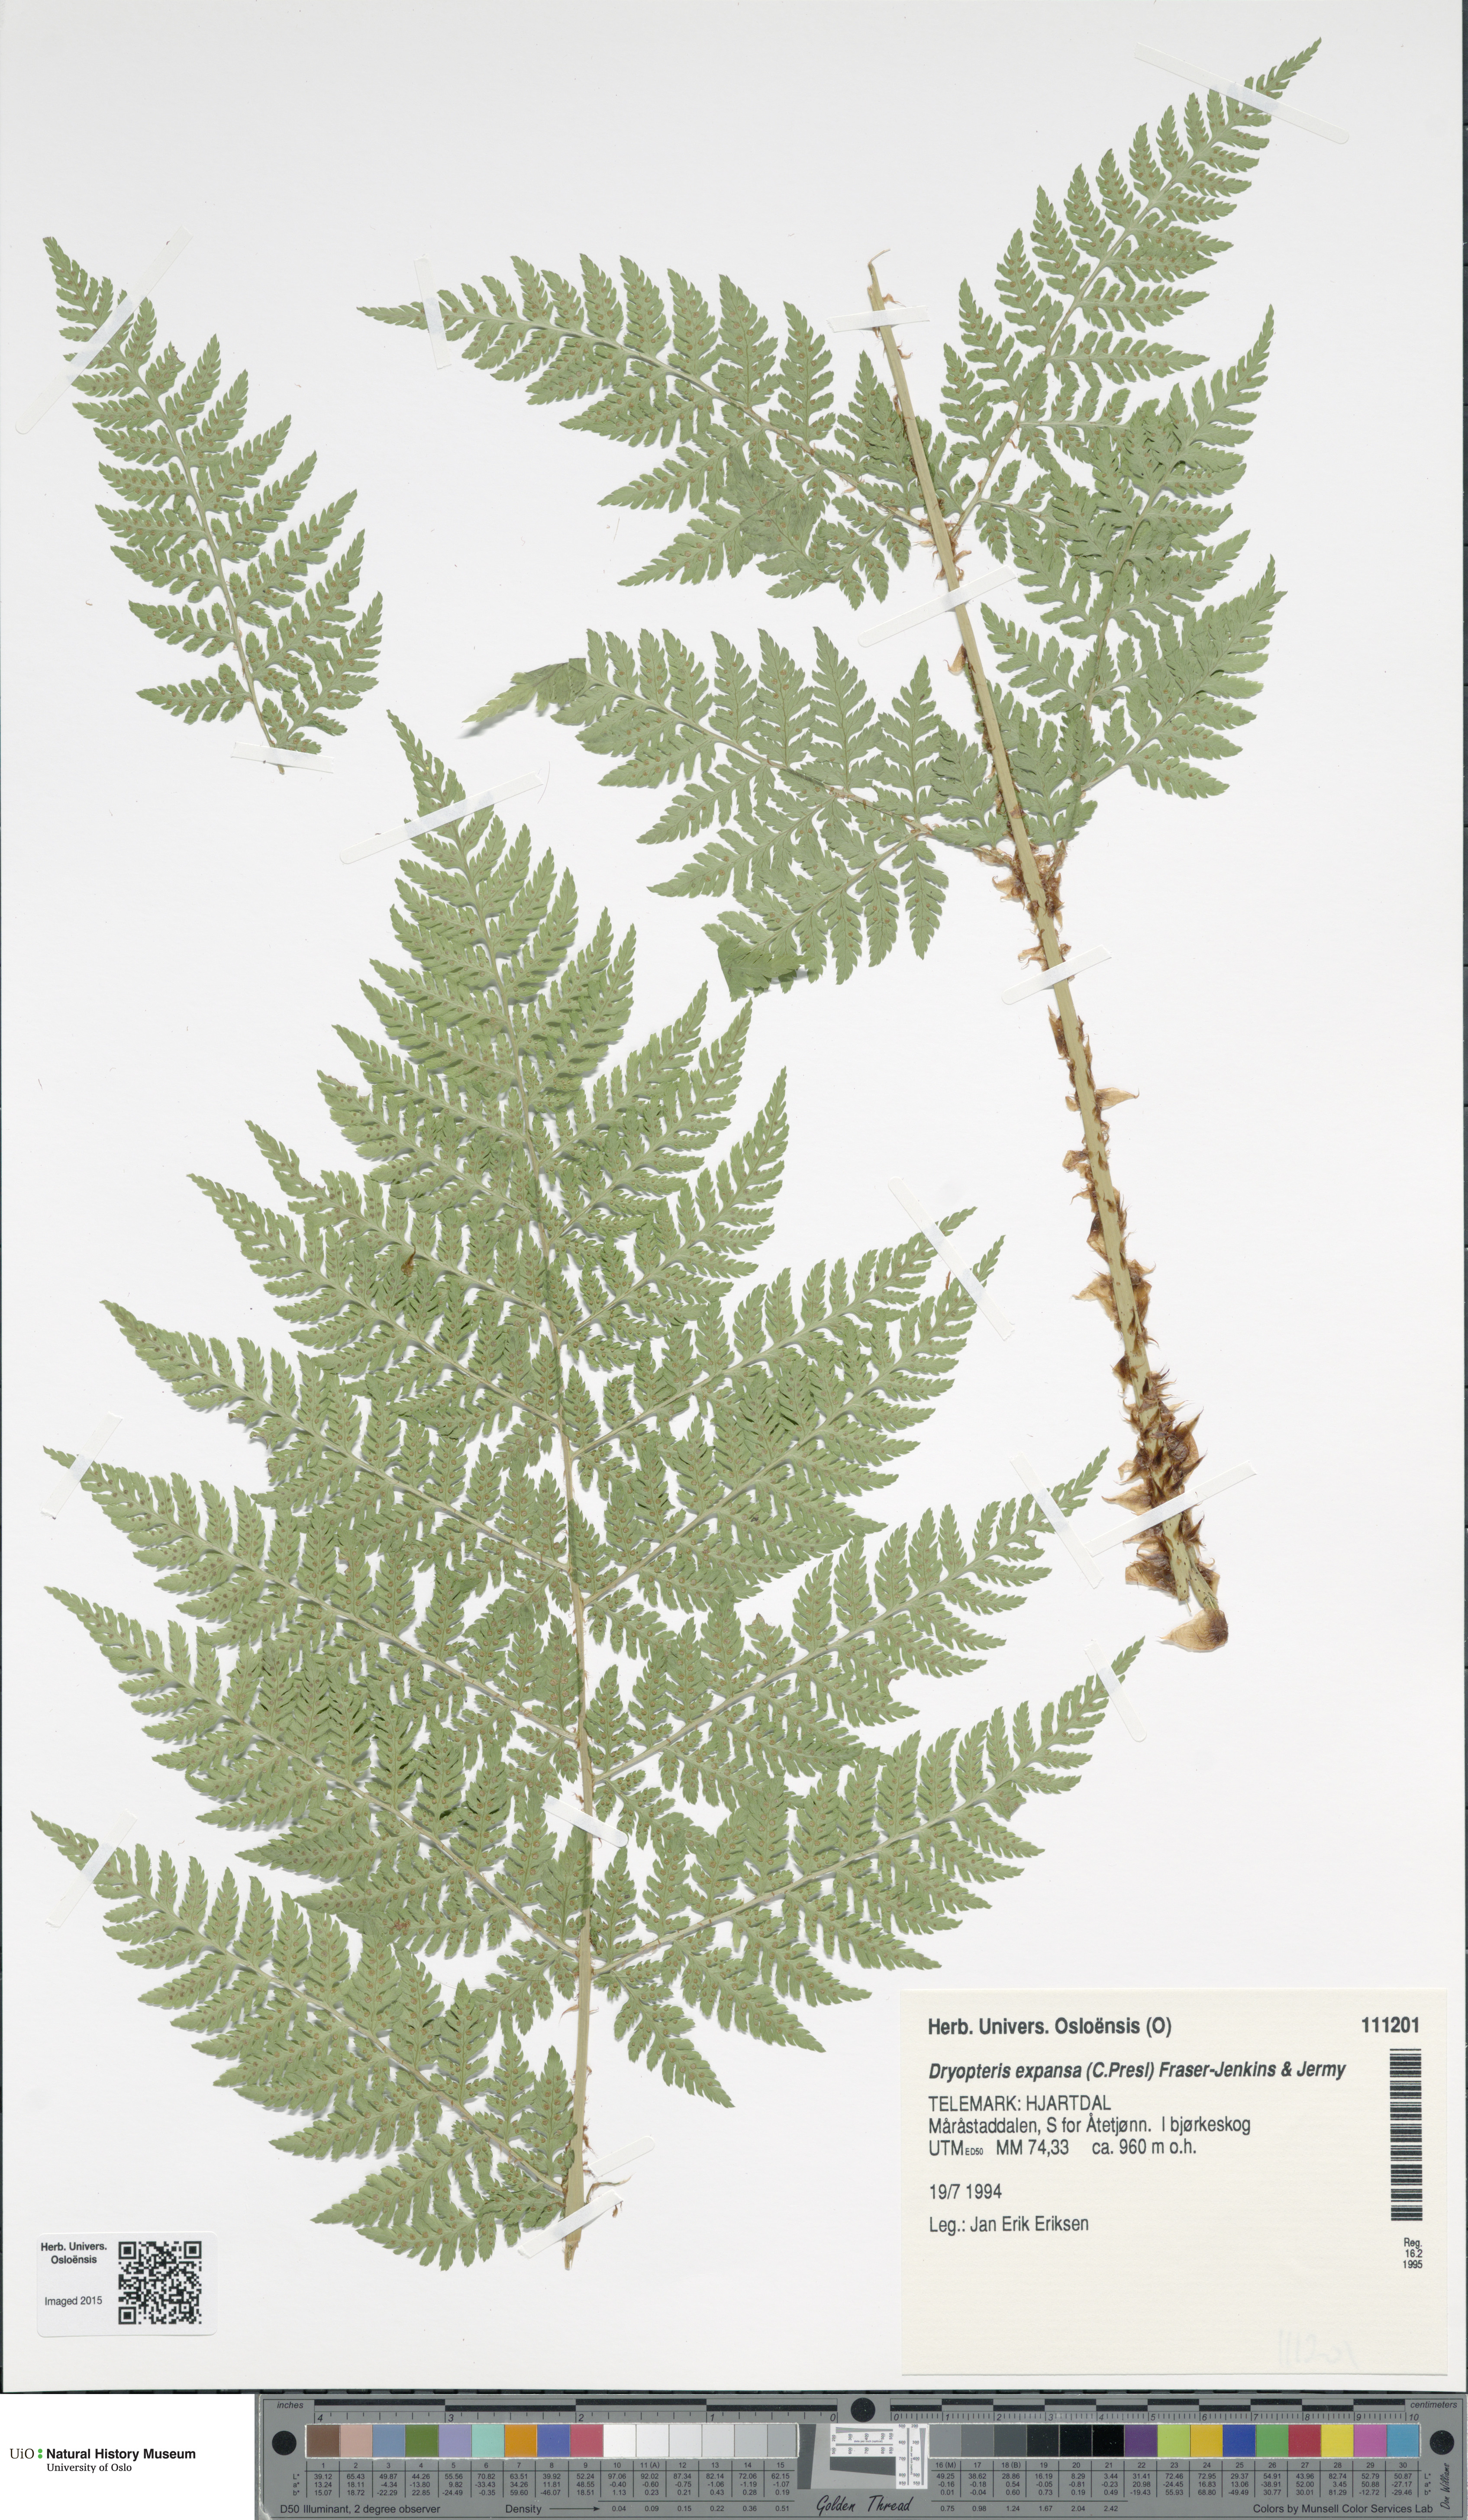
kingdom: Plantae
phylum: Tracheophyta
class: Polypodiopsida
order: Polypodiales
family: Dryopteridaceae
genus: Dryopteris
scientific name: Dryopteris expansa
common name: Northern buckler fern
